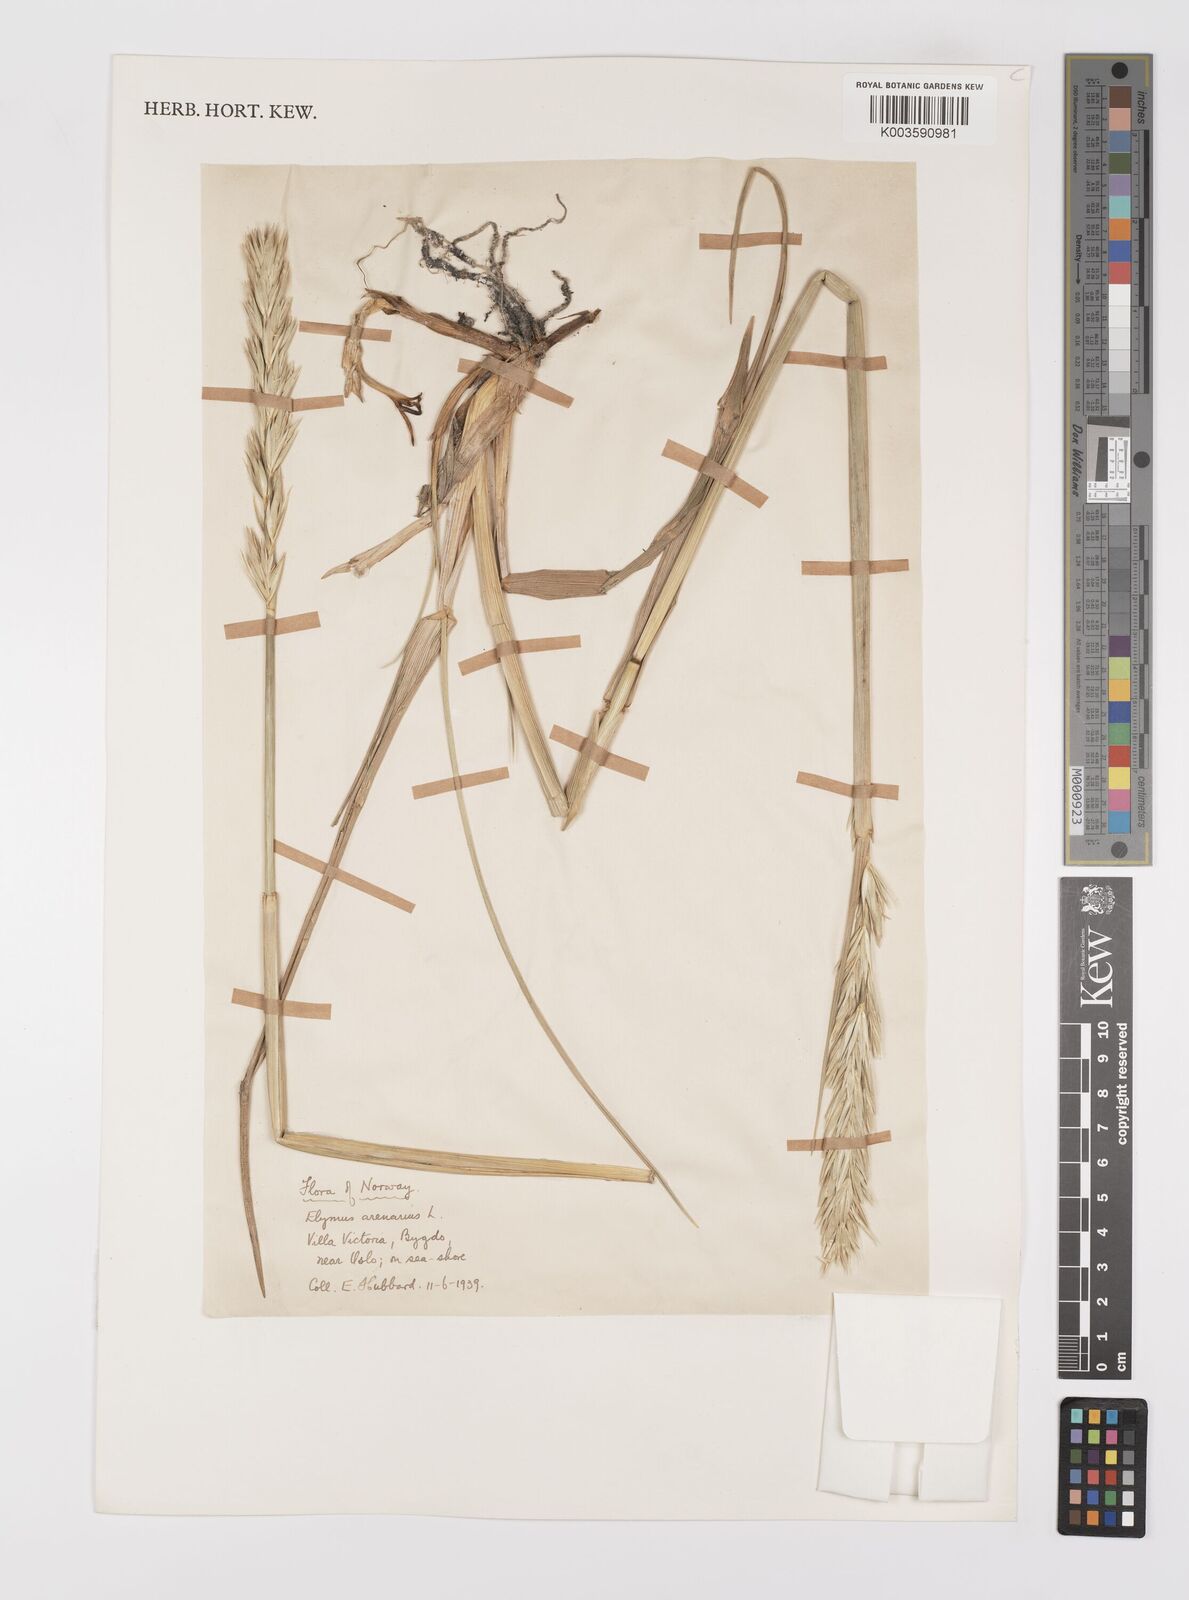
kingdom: Plantae
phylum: Tracheophyta
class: Liliopsida
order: Poales
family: Poaceae
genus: Leymus
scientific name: Leymus arenarius
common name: Lyme-grass
